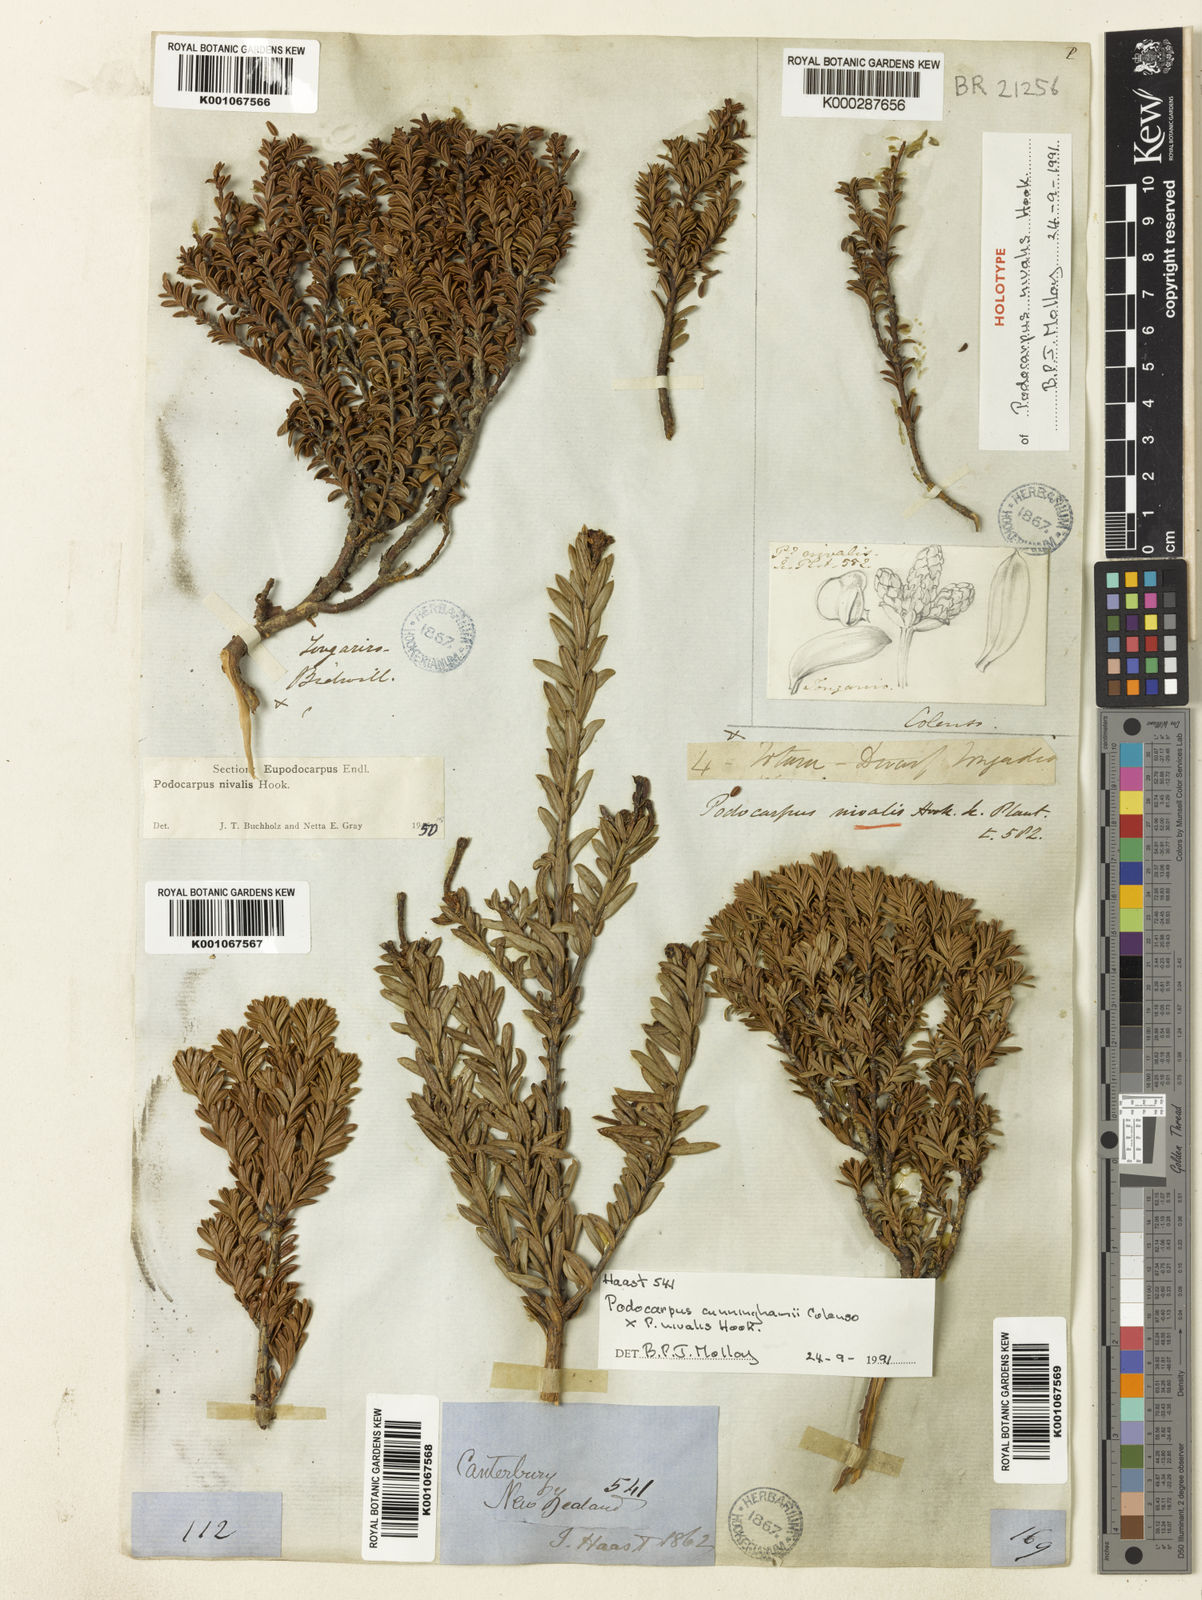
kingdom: Plantae
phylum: Tracheophyta
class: Pinopsida
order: Pinales
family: Podocarpaceae
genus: Podocarpus
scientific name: Podocarpus nivalis
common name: Alpine totara
